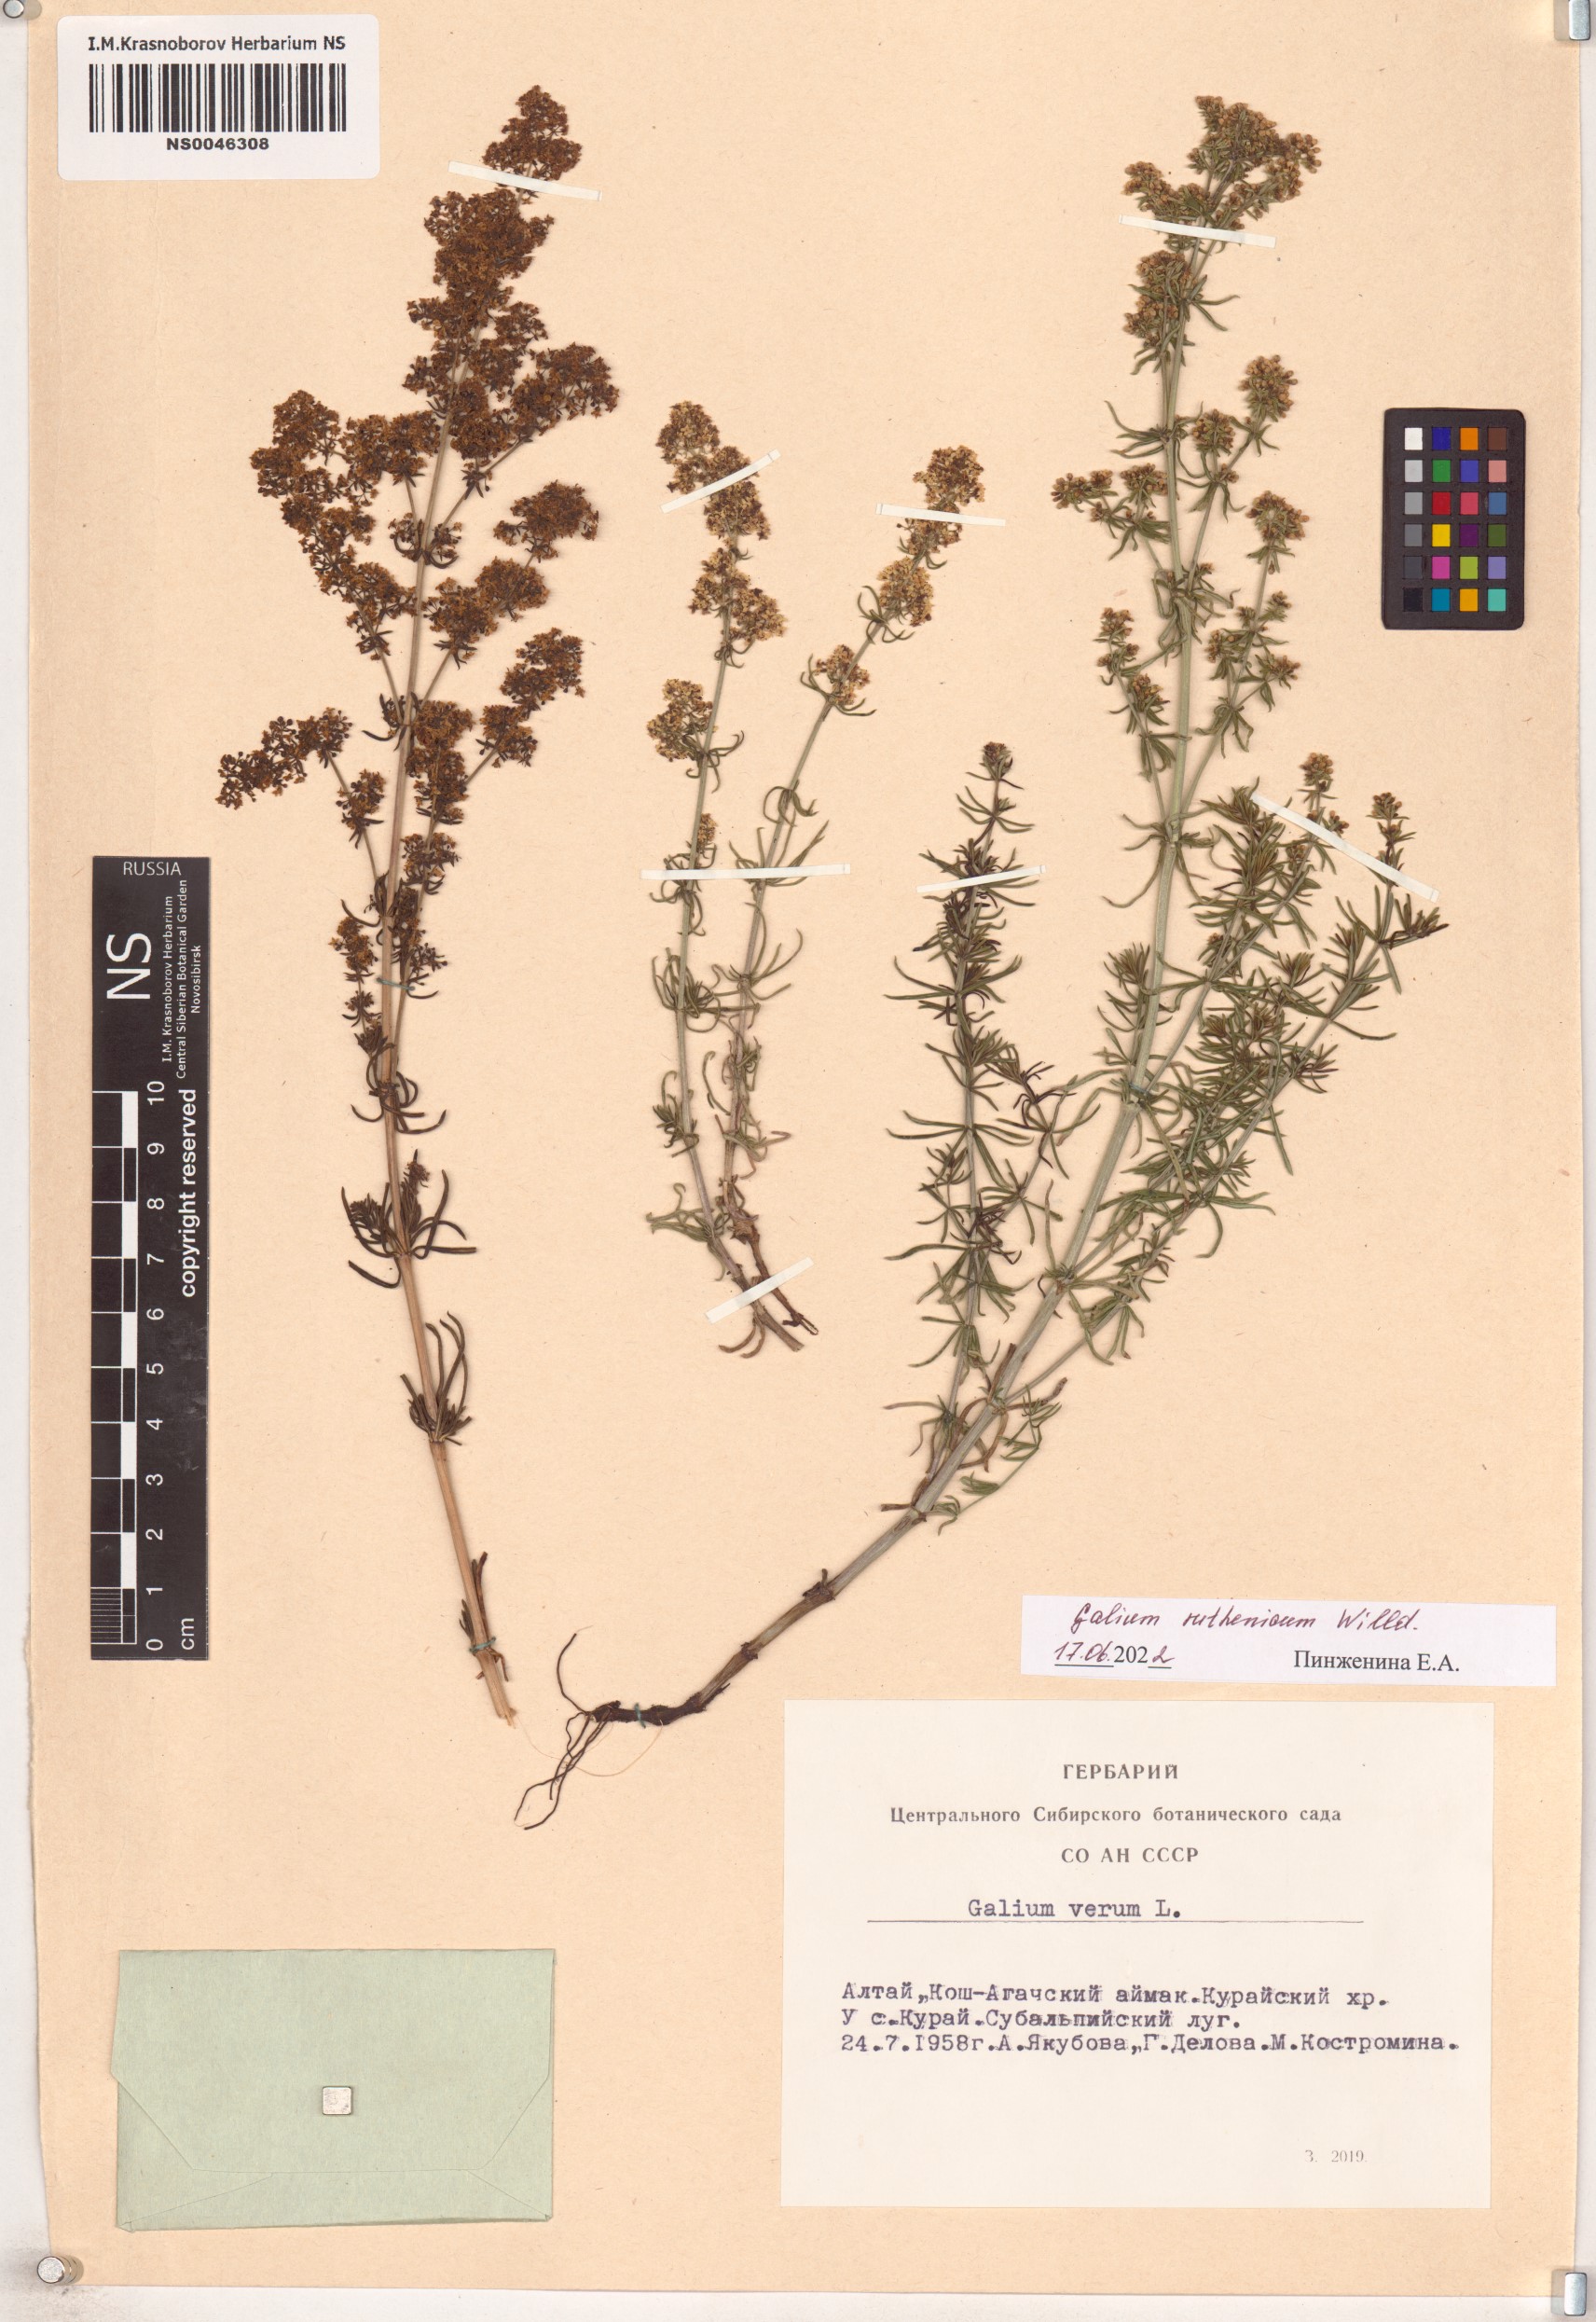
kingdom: Plantae
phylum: Tracheophyta
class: Magnoliopsida
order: Gentianales
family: Rubiaceae
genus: Galium
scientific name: Galium verum
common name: Lady's bedstraw
